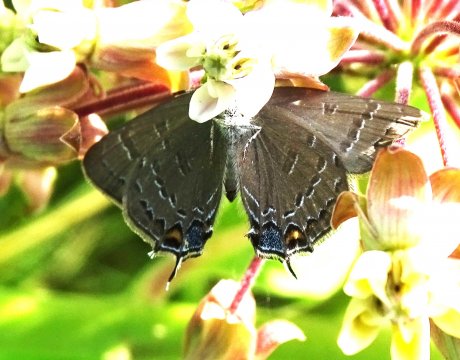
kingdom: Animalia
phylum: Arthropoda
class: Insecta
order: Lepidoptera
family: Lycaenidae
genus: Satyrium
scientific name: Satyrium calanus
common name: Banded Hairstreak
